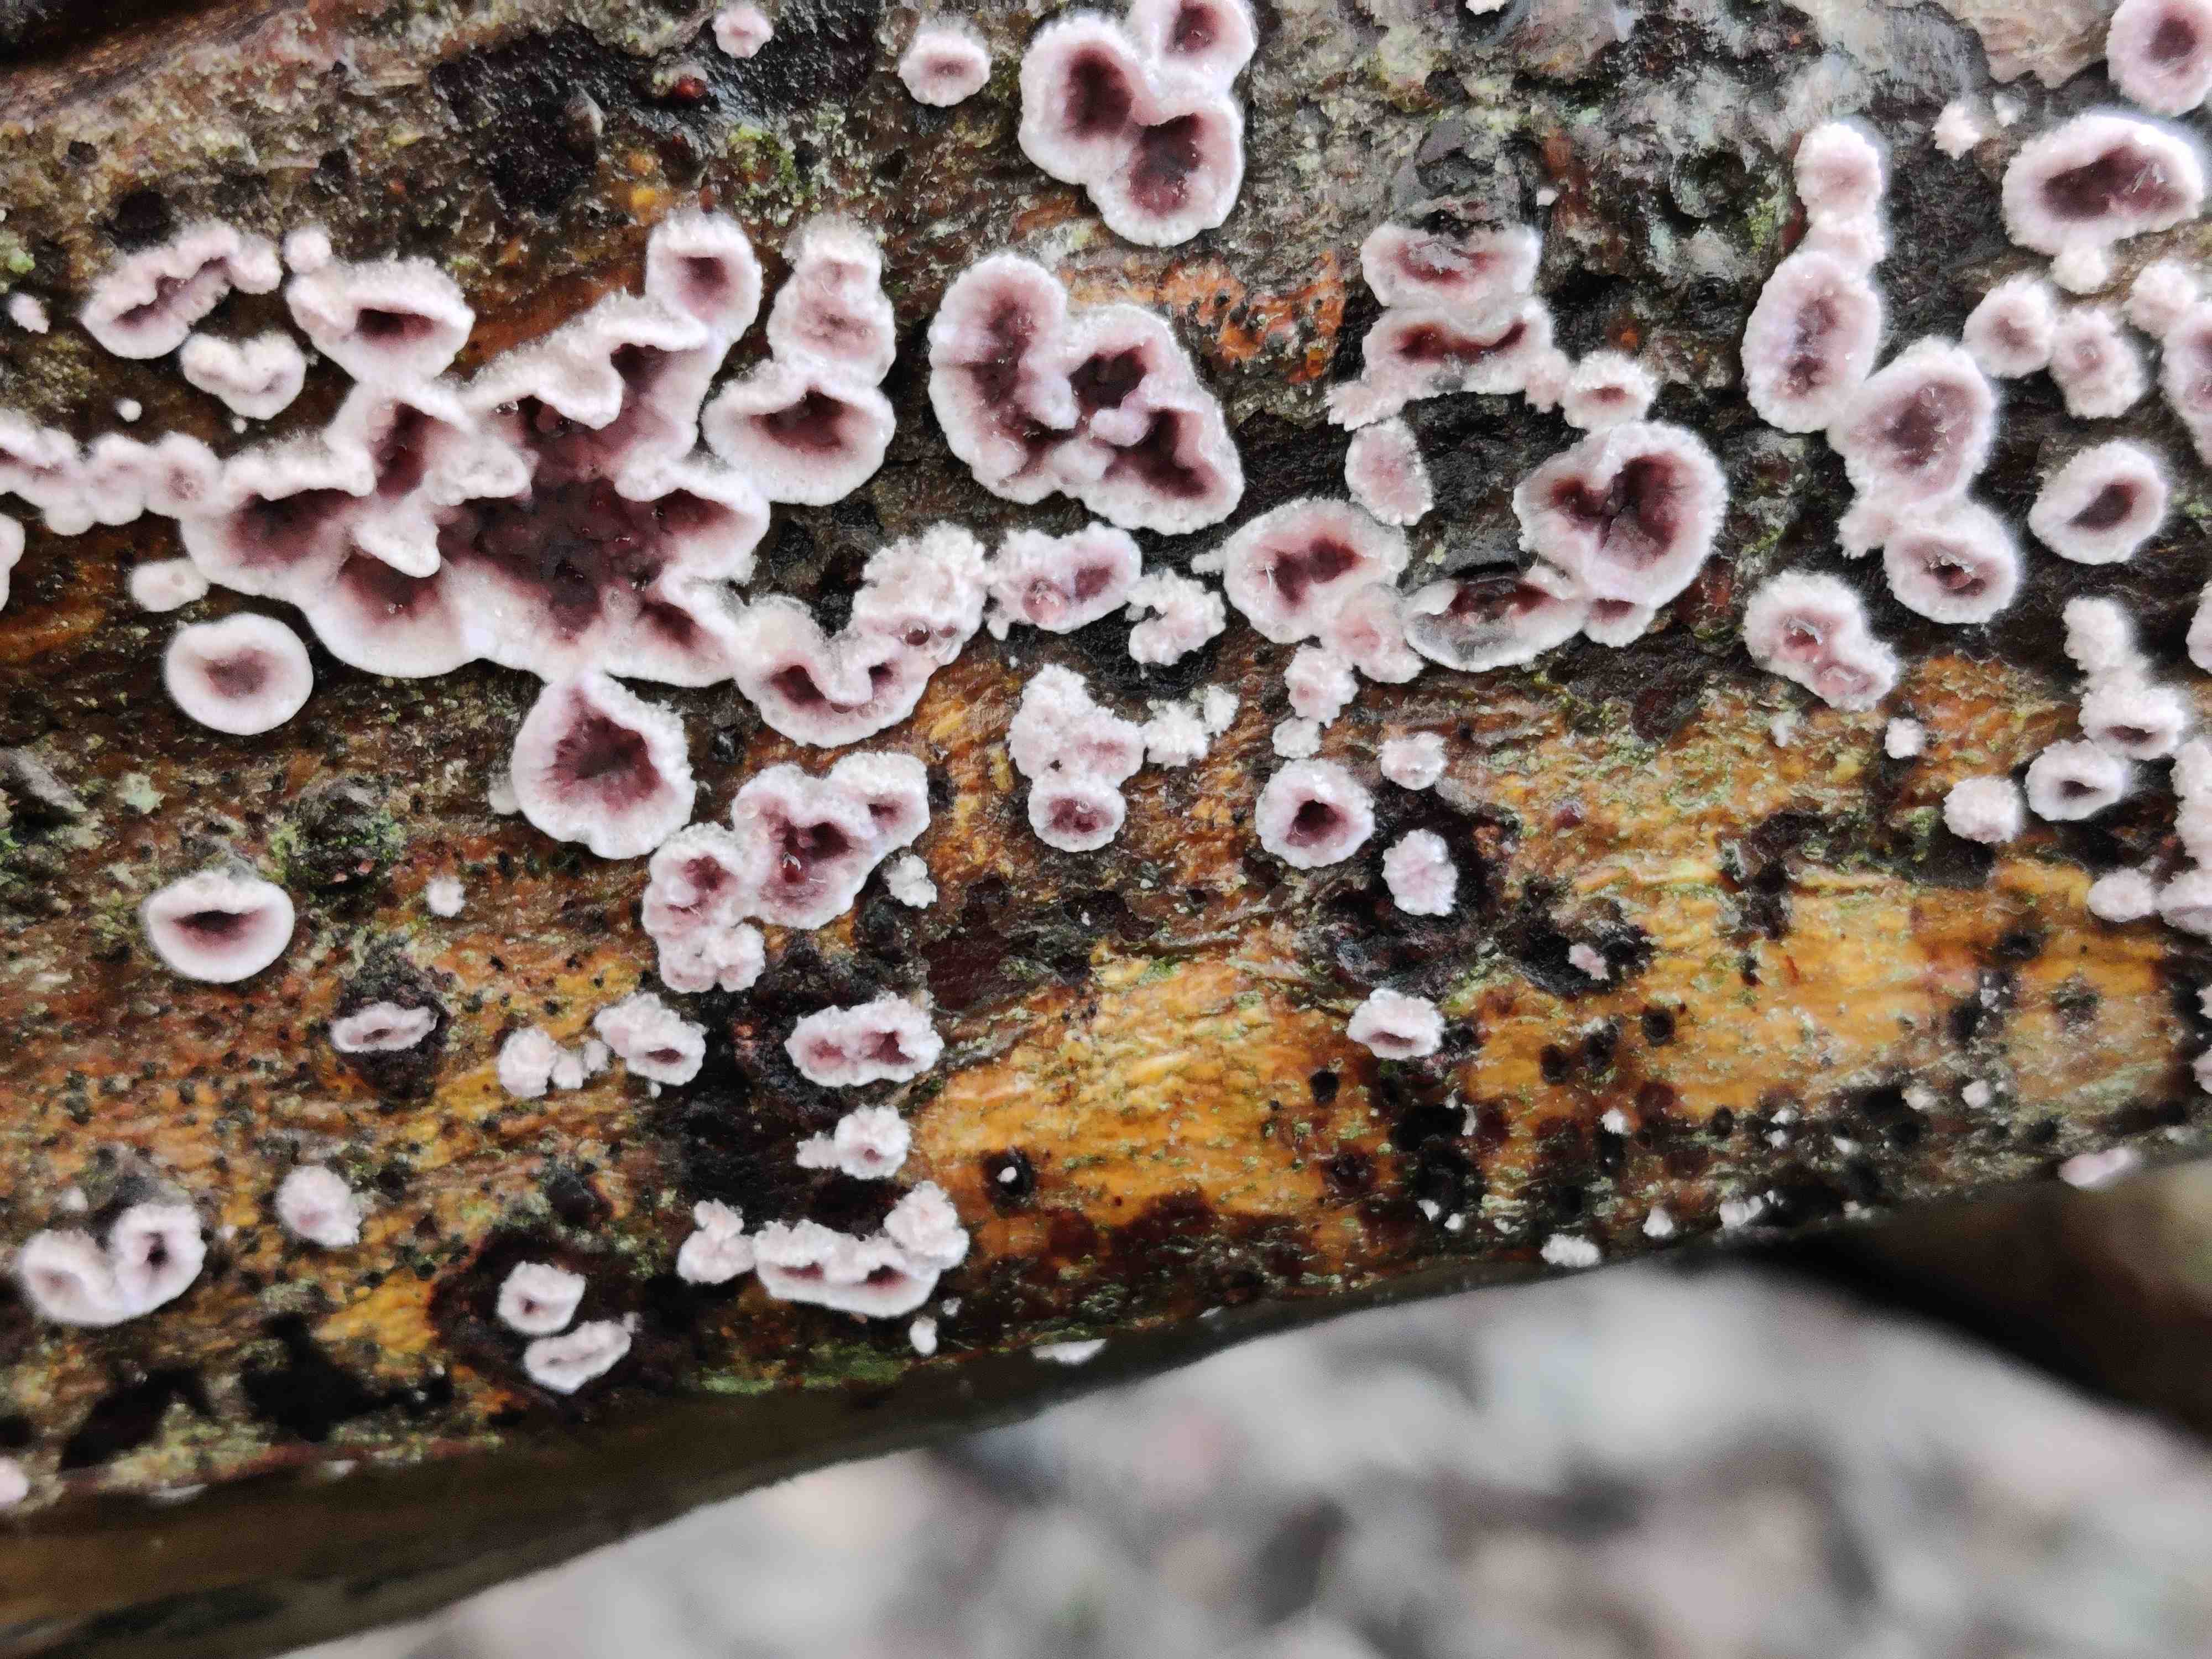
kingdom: Fungi
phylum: Basidiomycota
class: Agaricomycetes
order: Agaricales
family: Cyphellaceae
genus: Chondrostereum
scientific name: Chondrostereum purpureum
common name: purpurlædersvamp
